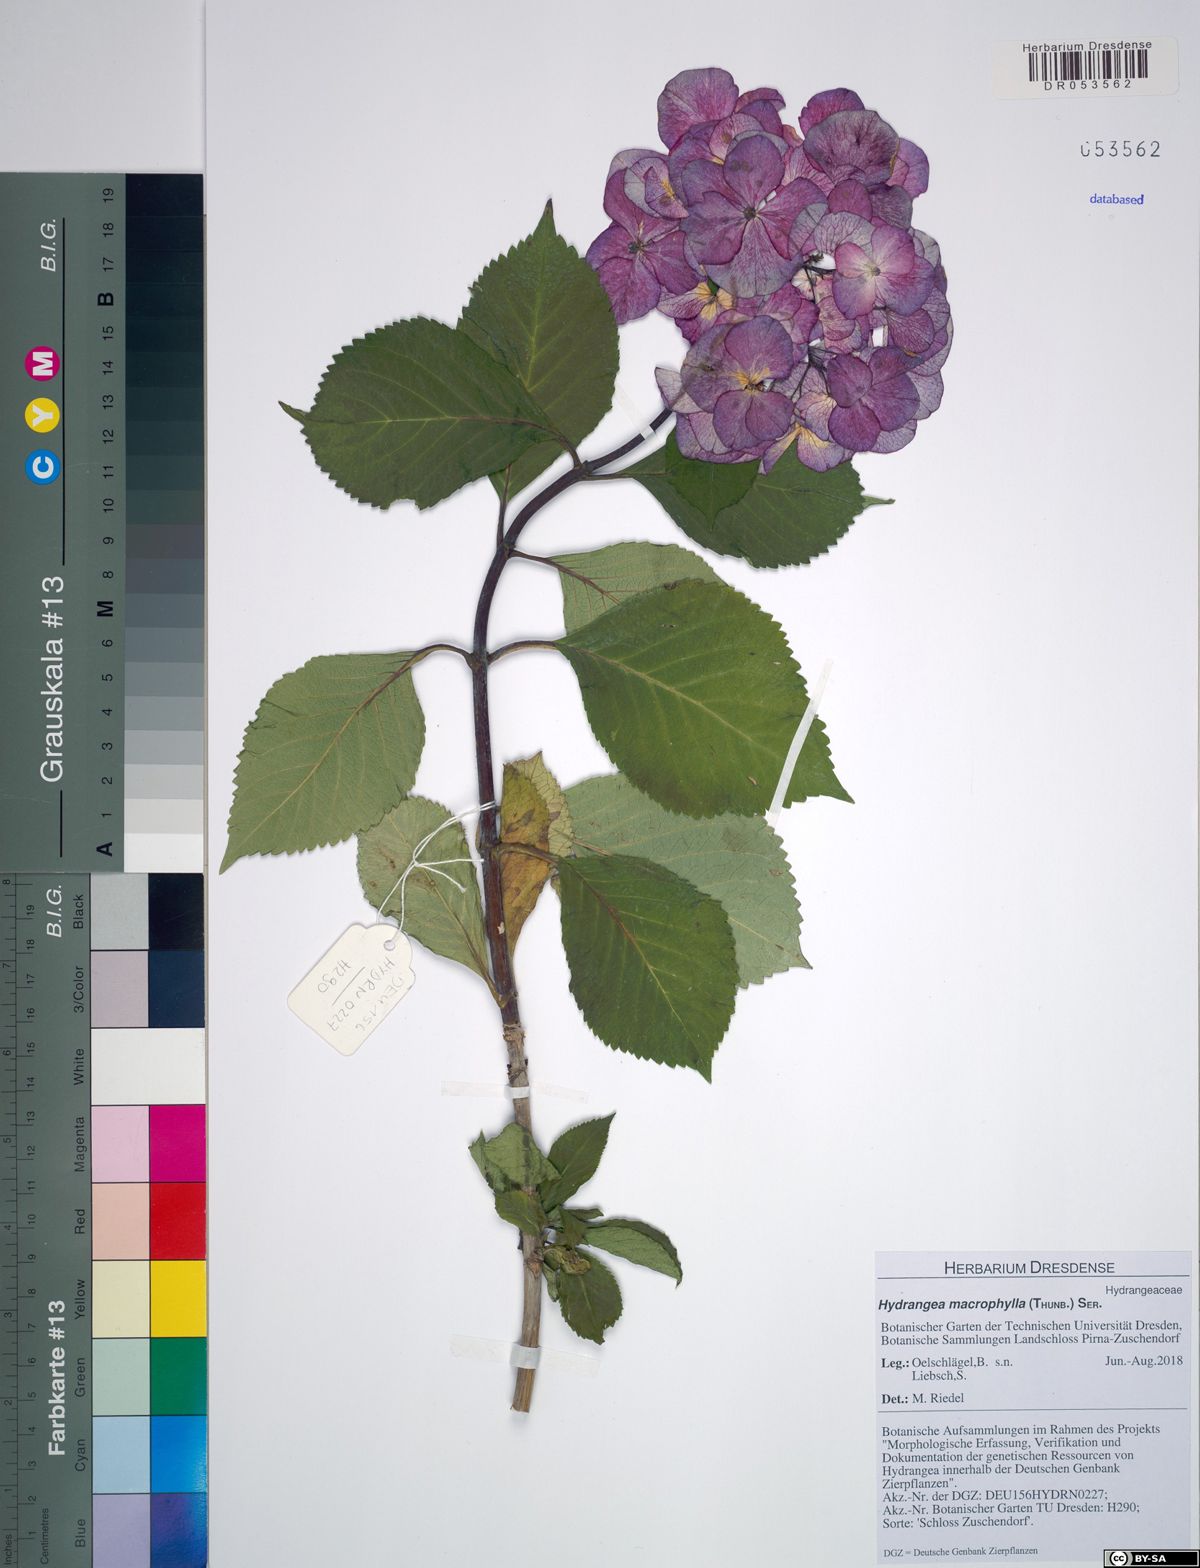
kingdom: Plantae
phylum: Tracheophyta
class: Magnoliopsida
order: Cornales
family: Hydrangeaceae
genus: Hydrangea
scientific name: Hydrangea macrophylla
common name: Hydrangea
